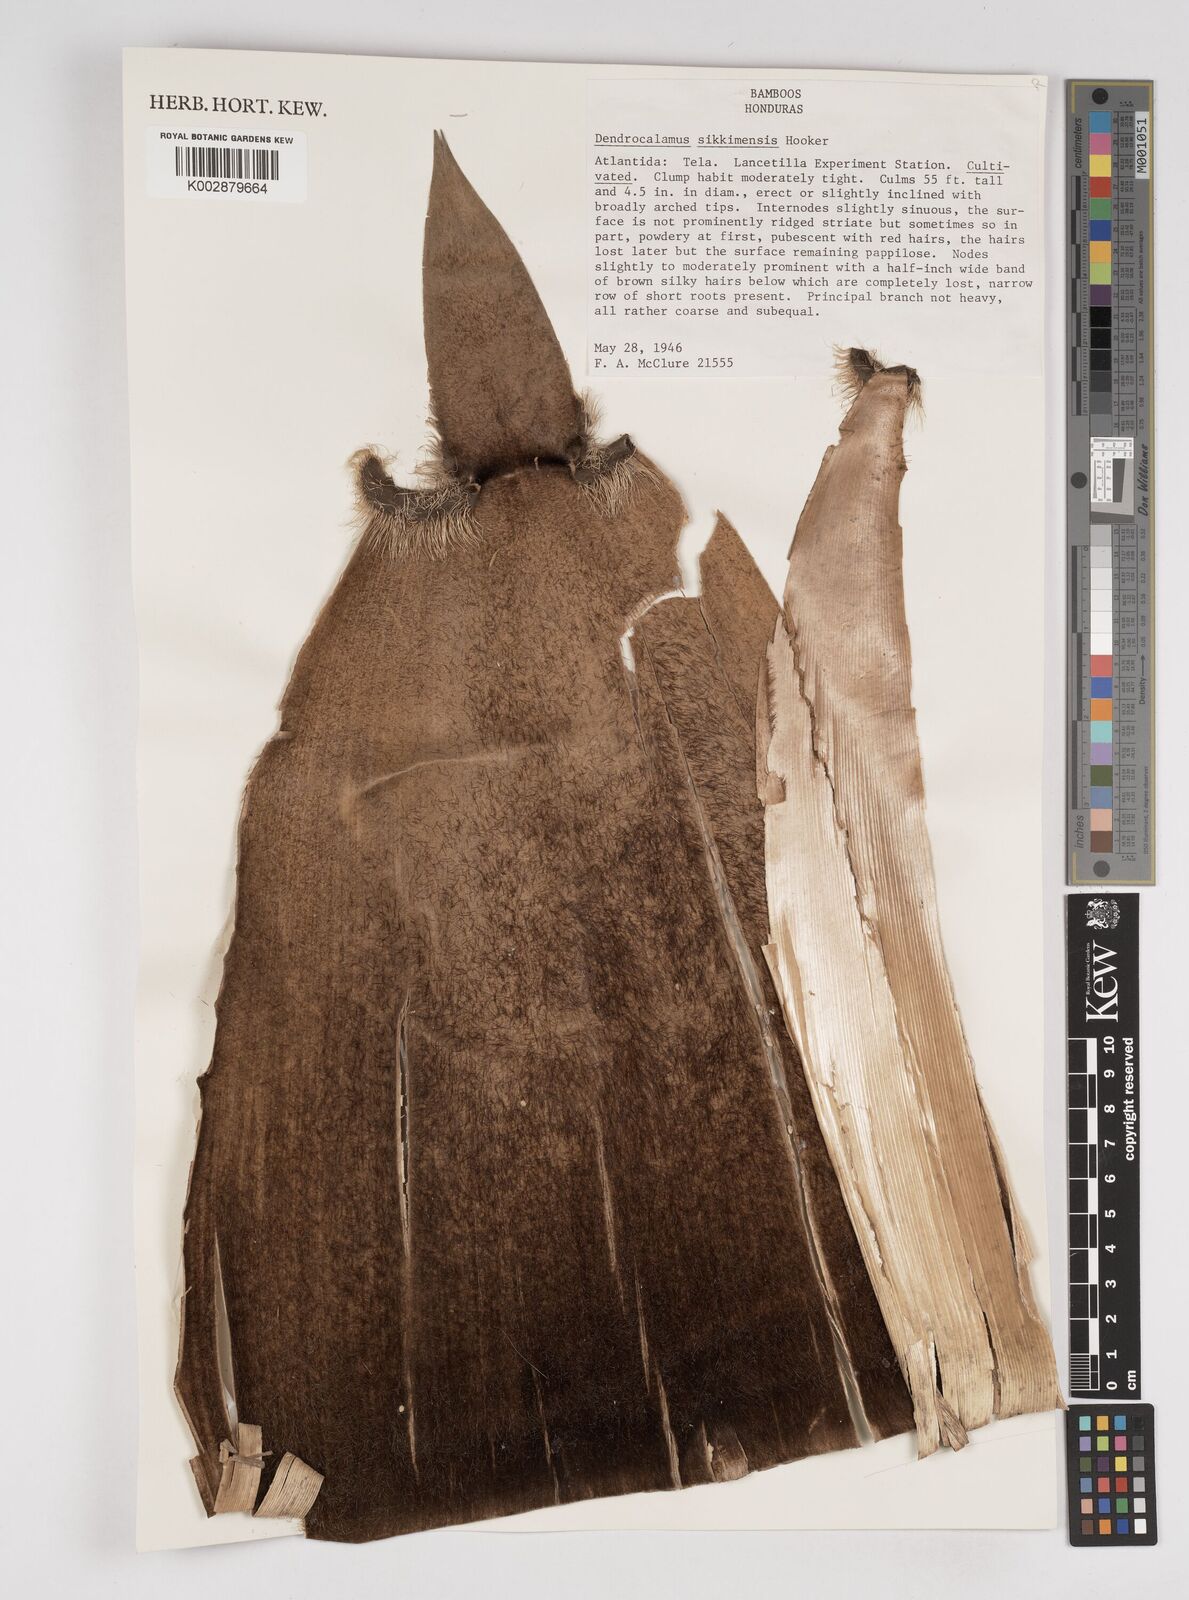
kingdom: Plantae
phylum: Tracheophyta
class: Liliopsida
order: Poales
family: Poaceae
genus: Dendrocalamus
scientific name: Dendrocalamus sikkimensis
